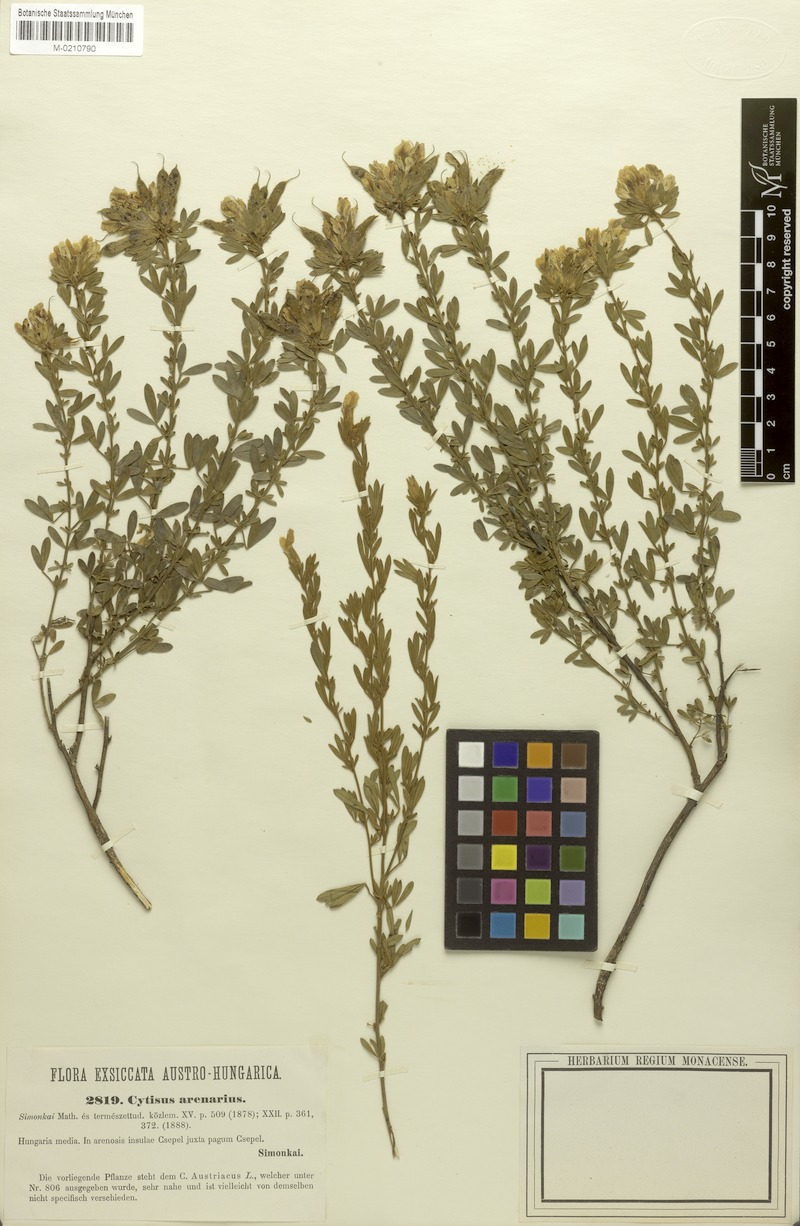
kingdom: Plantae
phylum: Tracheophyta
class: Magnoliopsida
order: Fabales
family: Fabaceae
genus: Chamaecytisus
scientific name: Chamaecytisus austriacus
